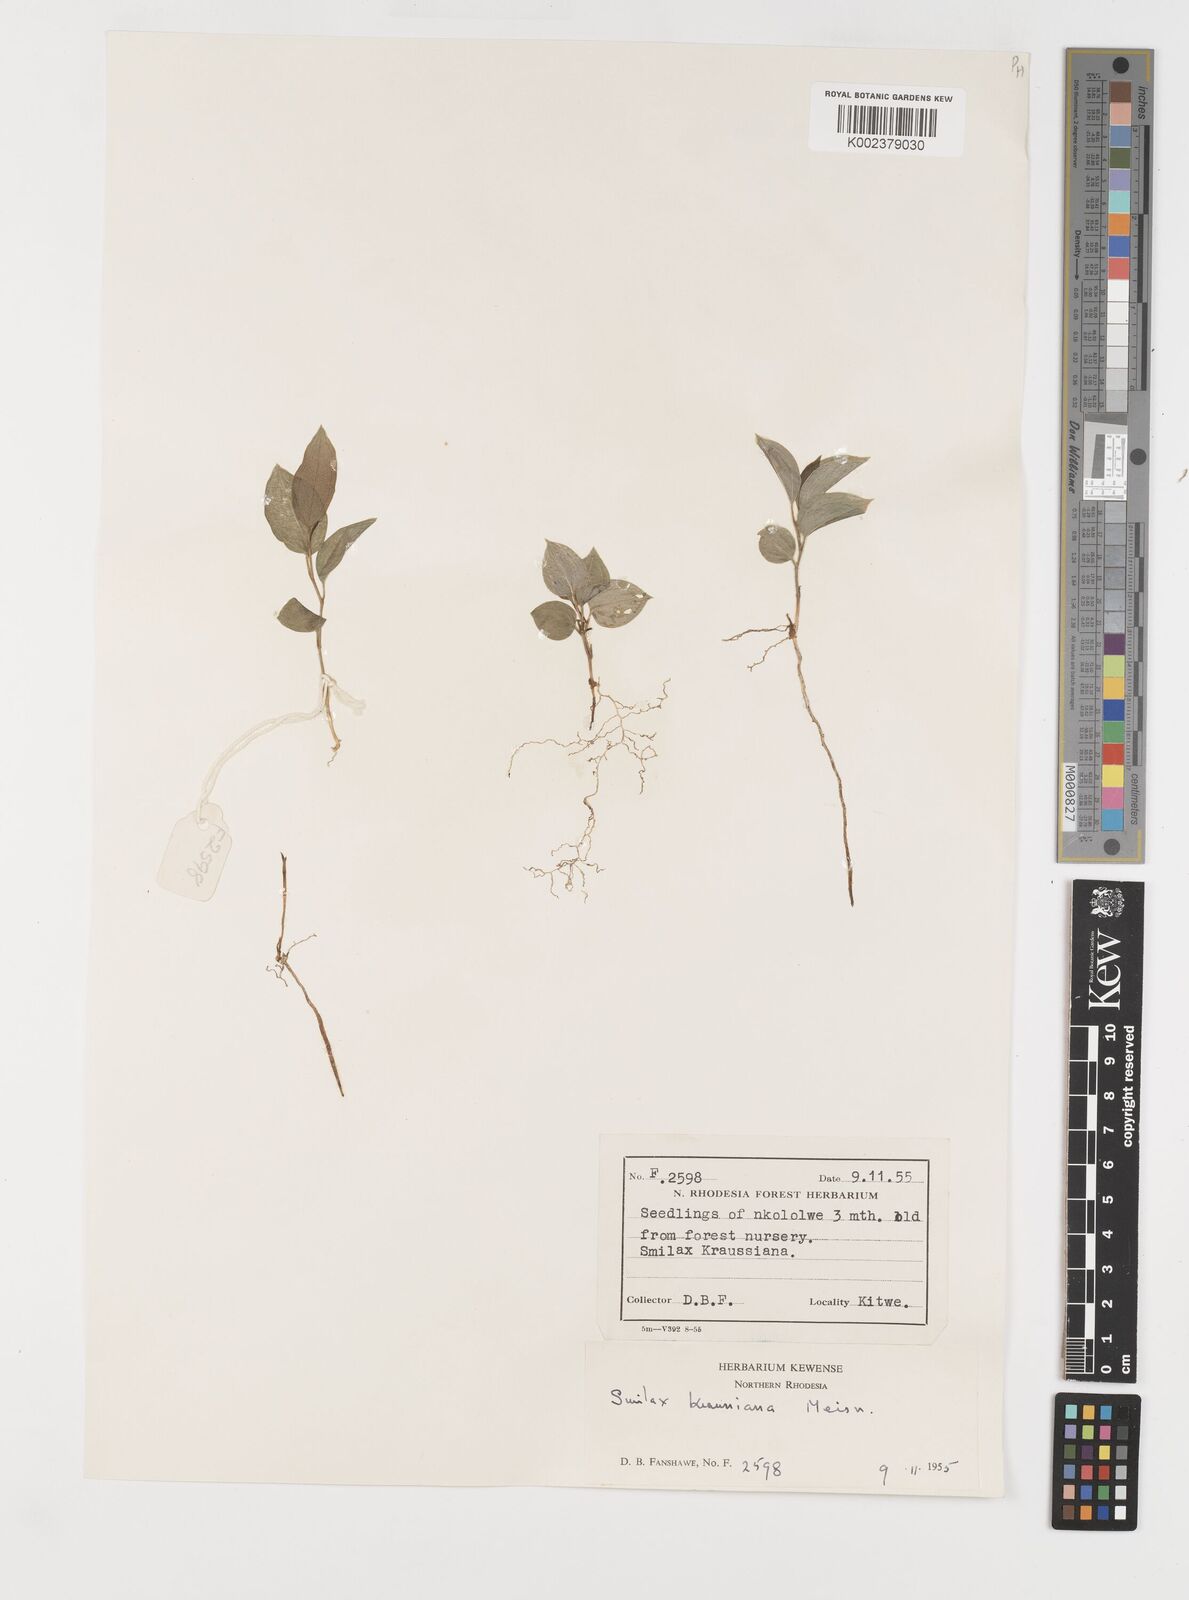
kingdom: Plantae
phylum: Tracheophyta
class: Liliopsida
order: Liliales
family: Smilacaceae
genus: Smilax
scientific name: Smilax anceps
